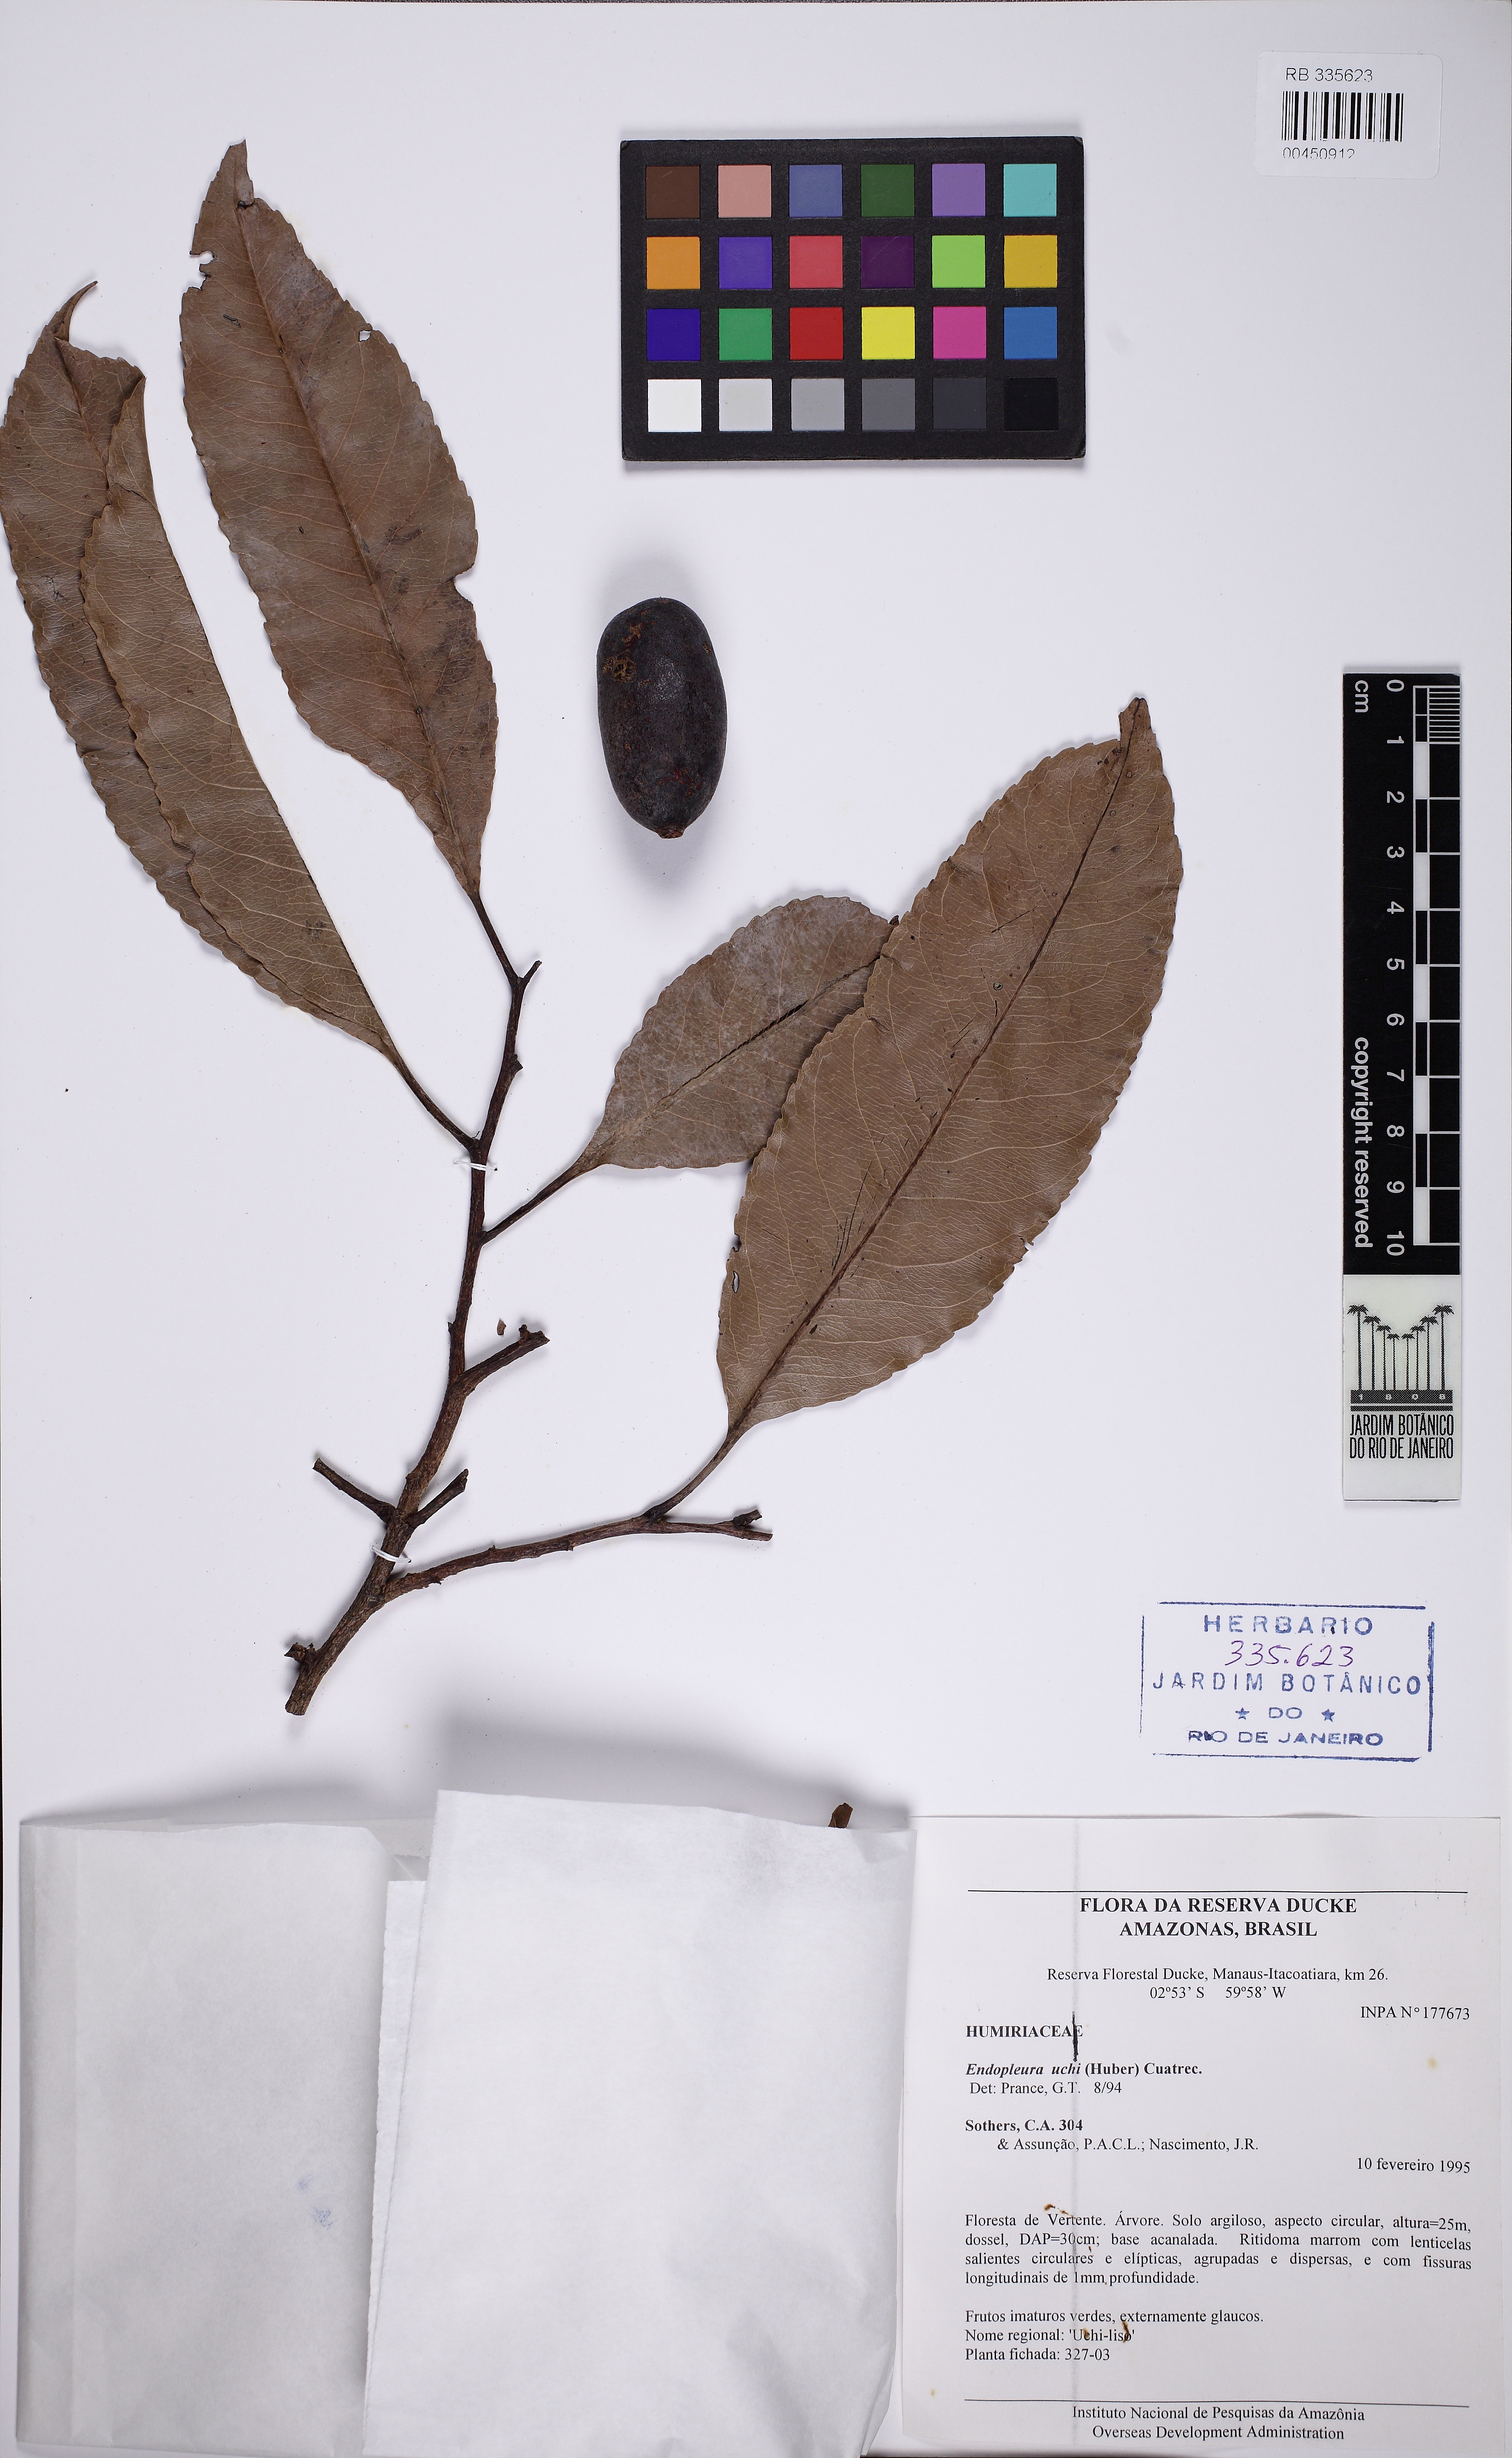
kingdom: Plantae
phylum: Tracheophyta
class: Magnoliopsida
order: Malpighiales
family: Humiriaceae
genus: Endopleura
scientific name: Endopleura uchi
